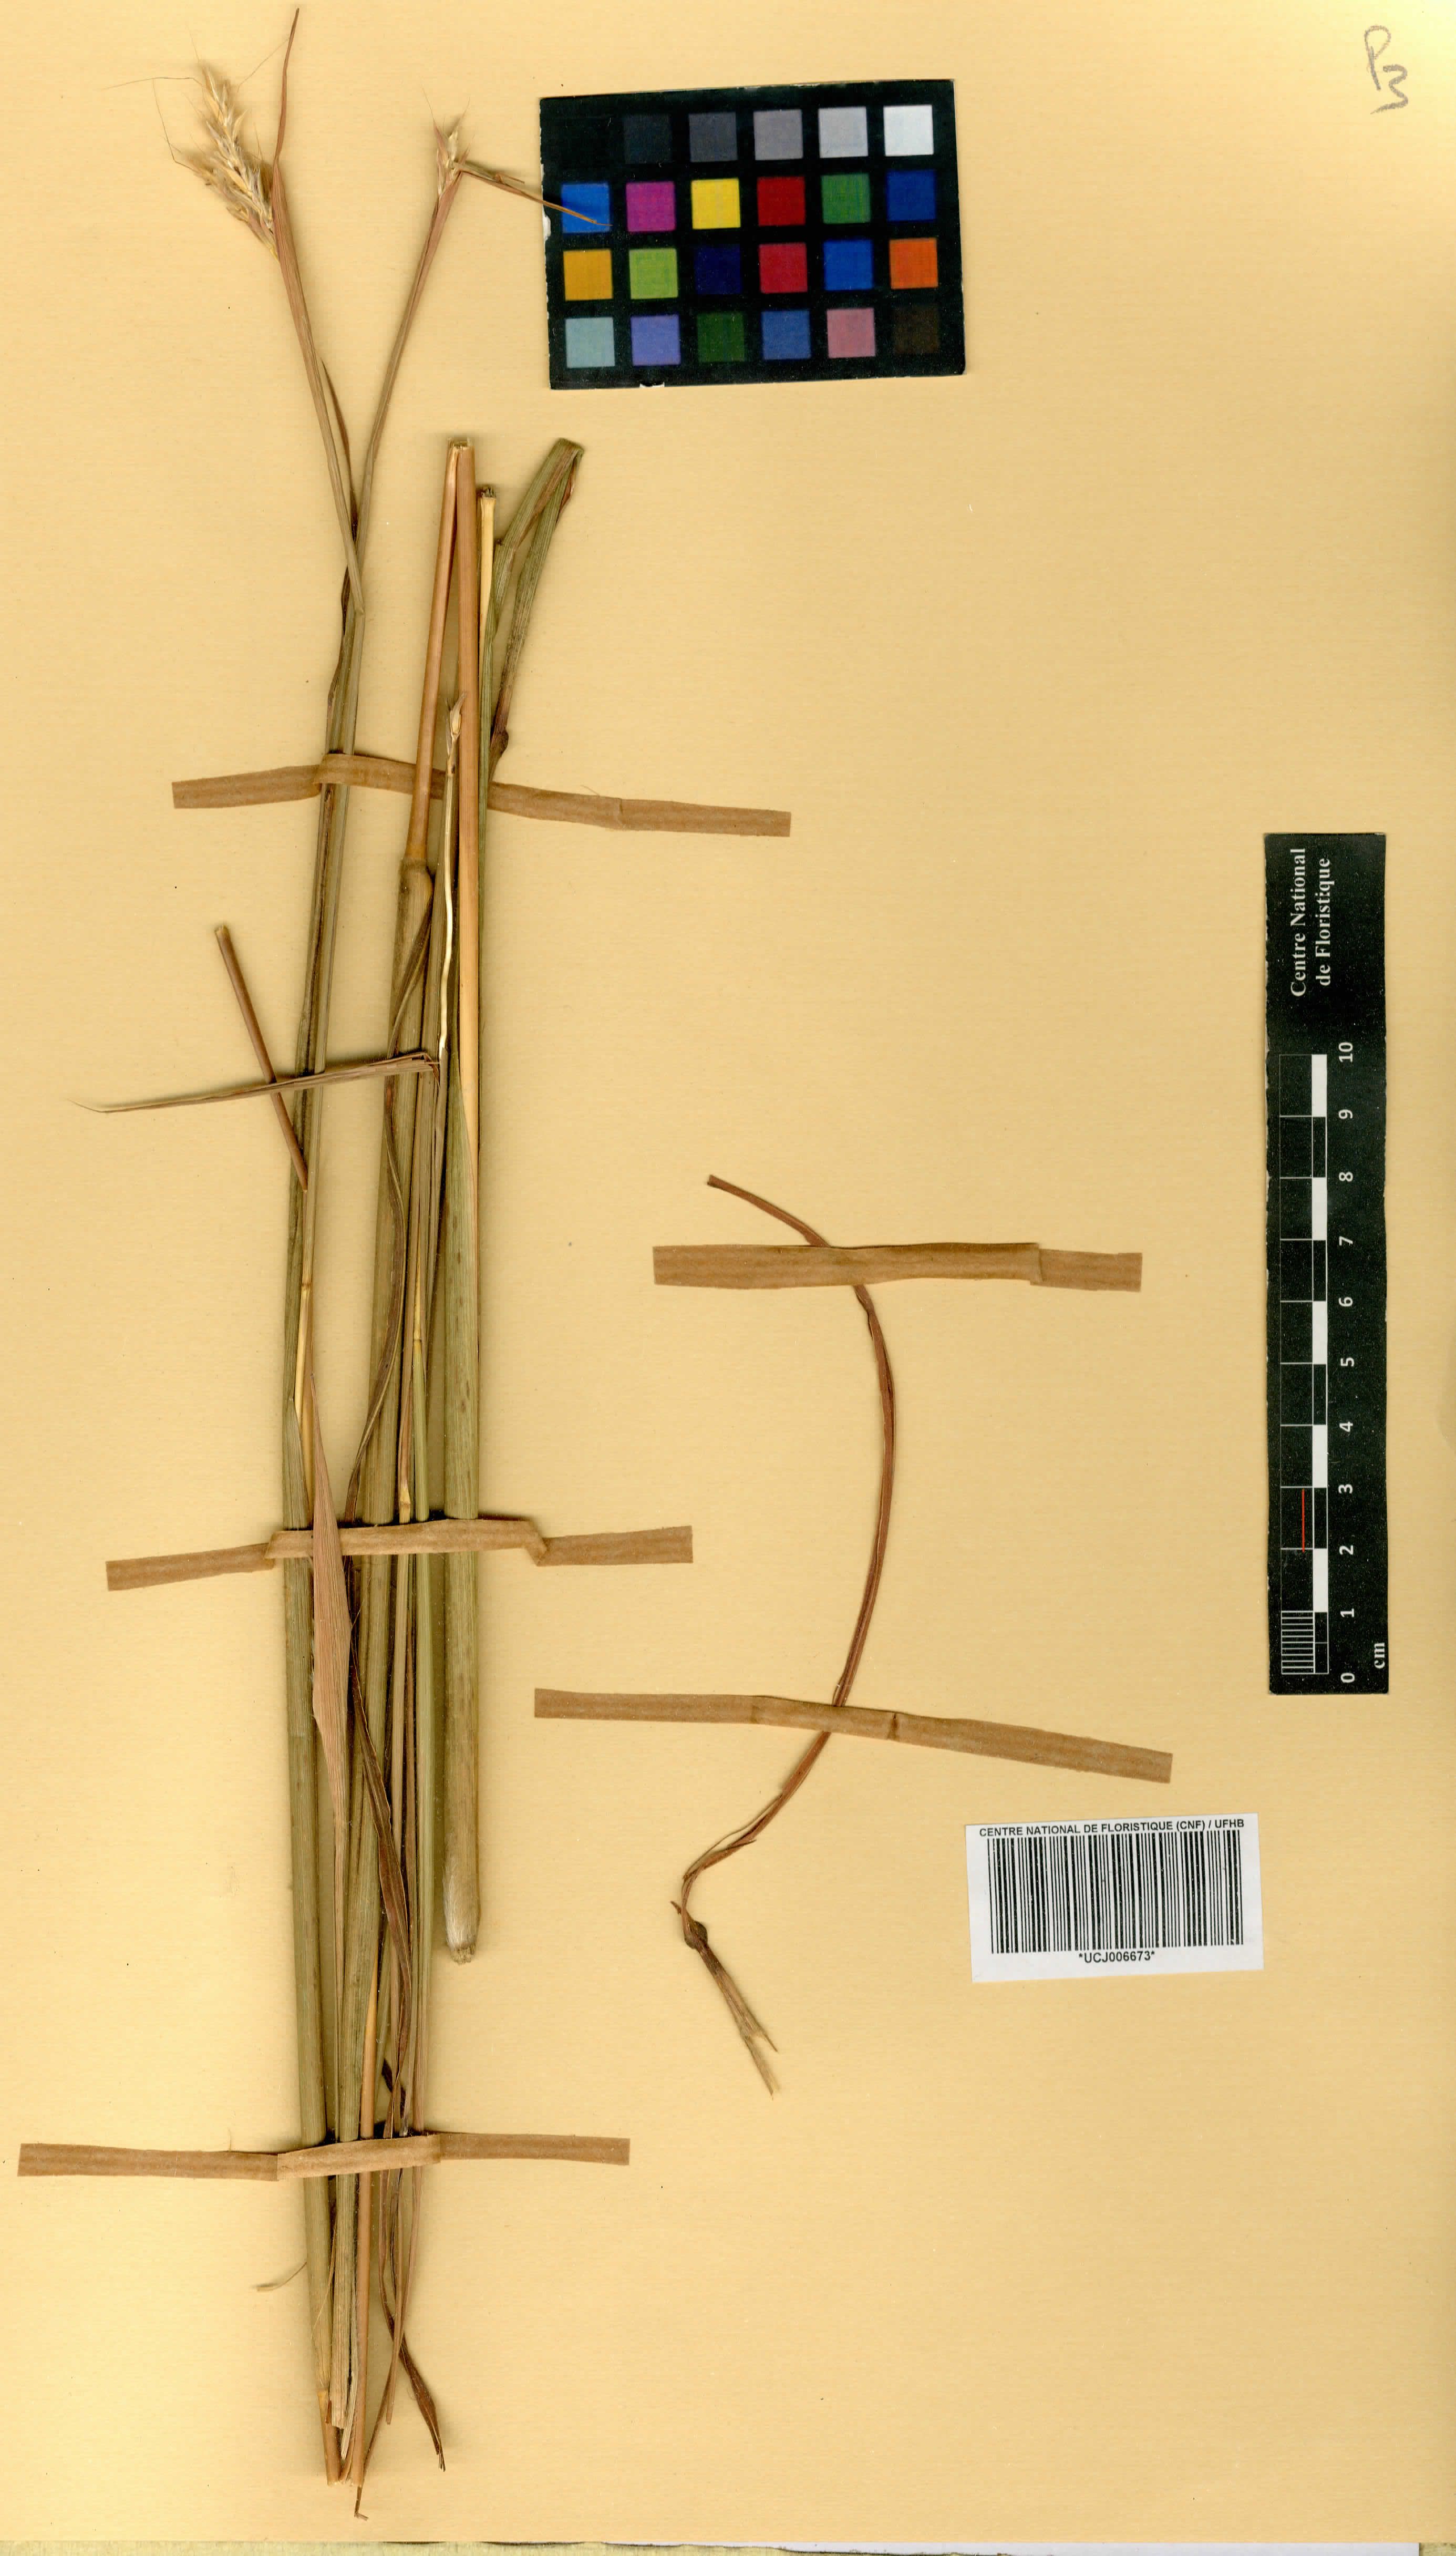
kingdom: Plantae
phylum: Tracheophyta
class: Liliopsida
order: Poales
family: Poaceae
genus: Andropogon
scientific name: Andropogon gayanus
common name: Tambuki grass
